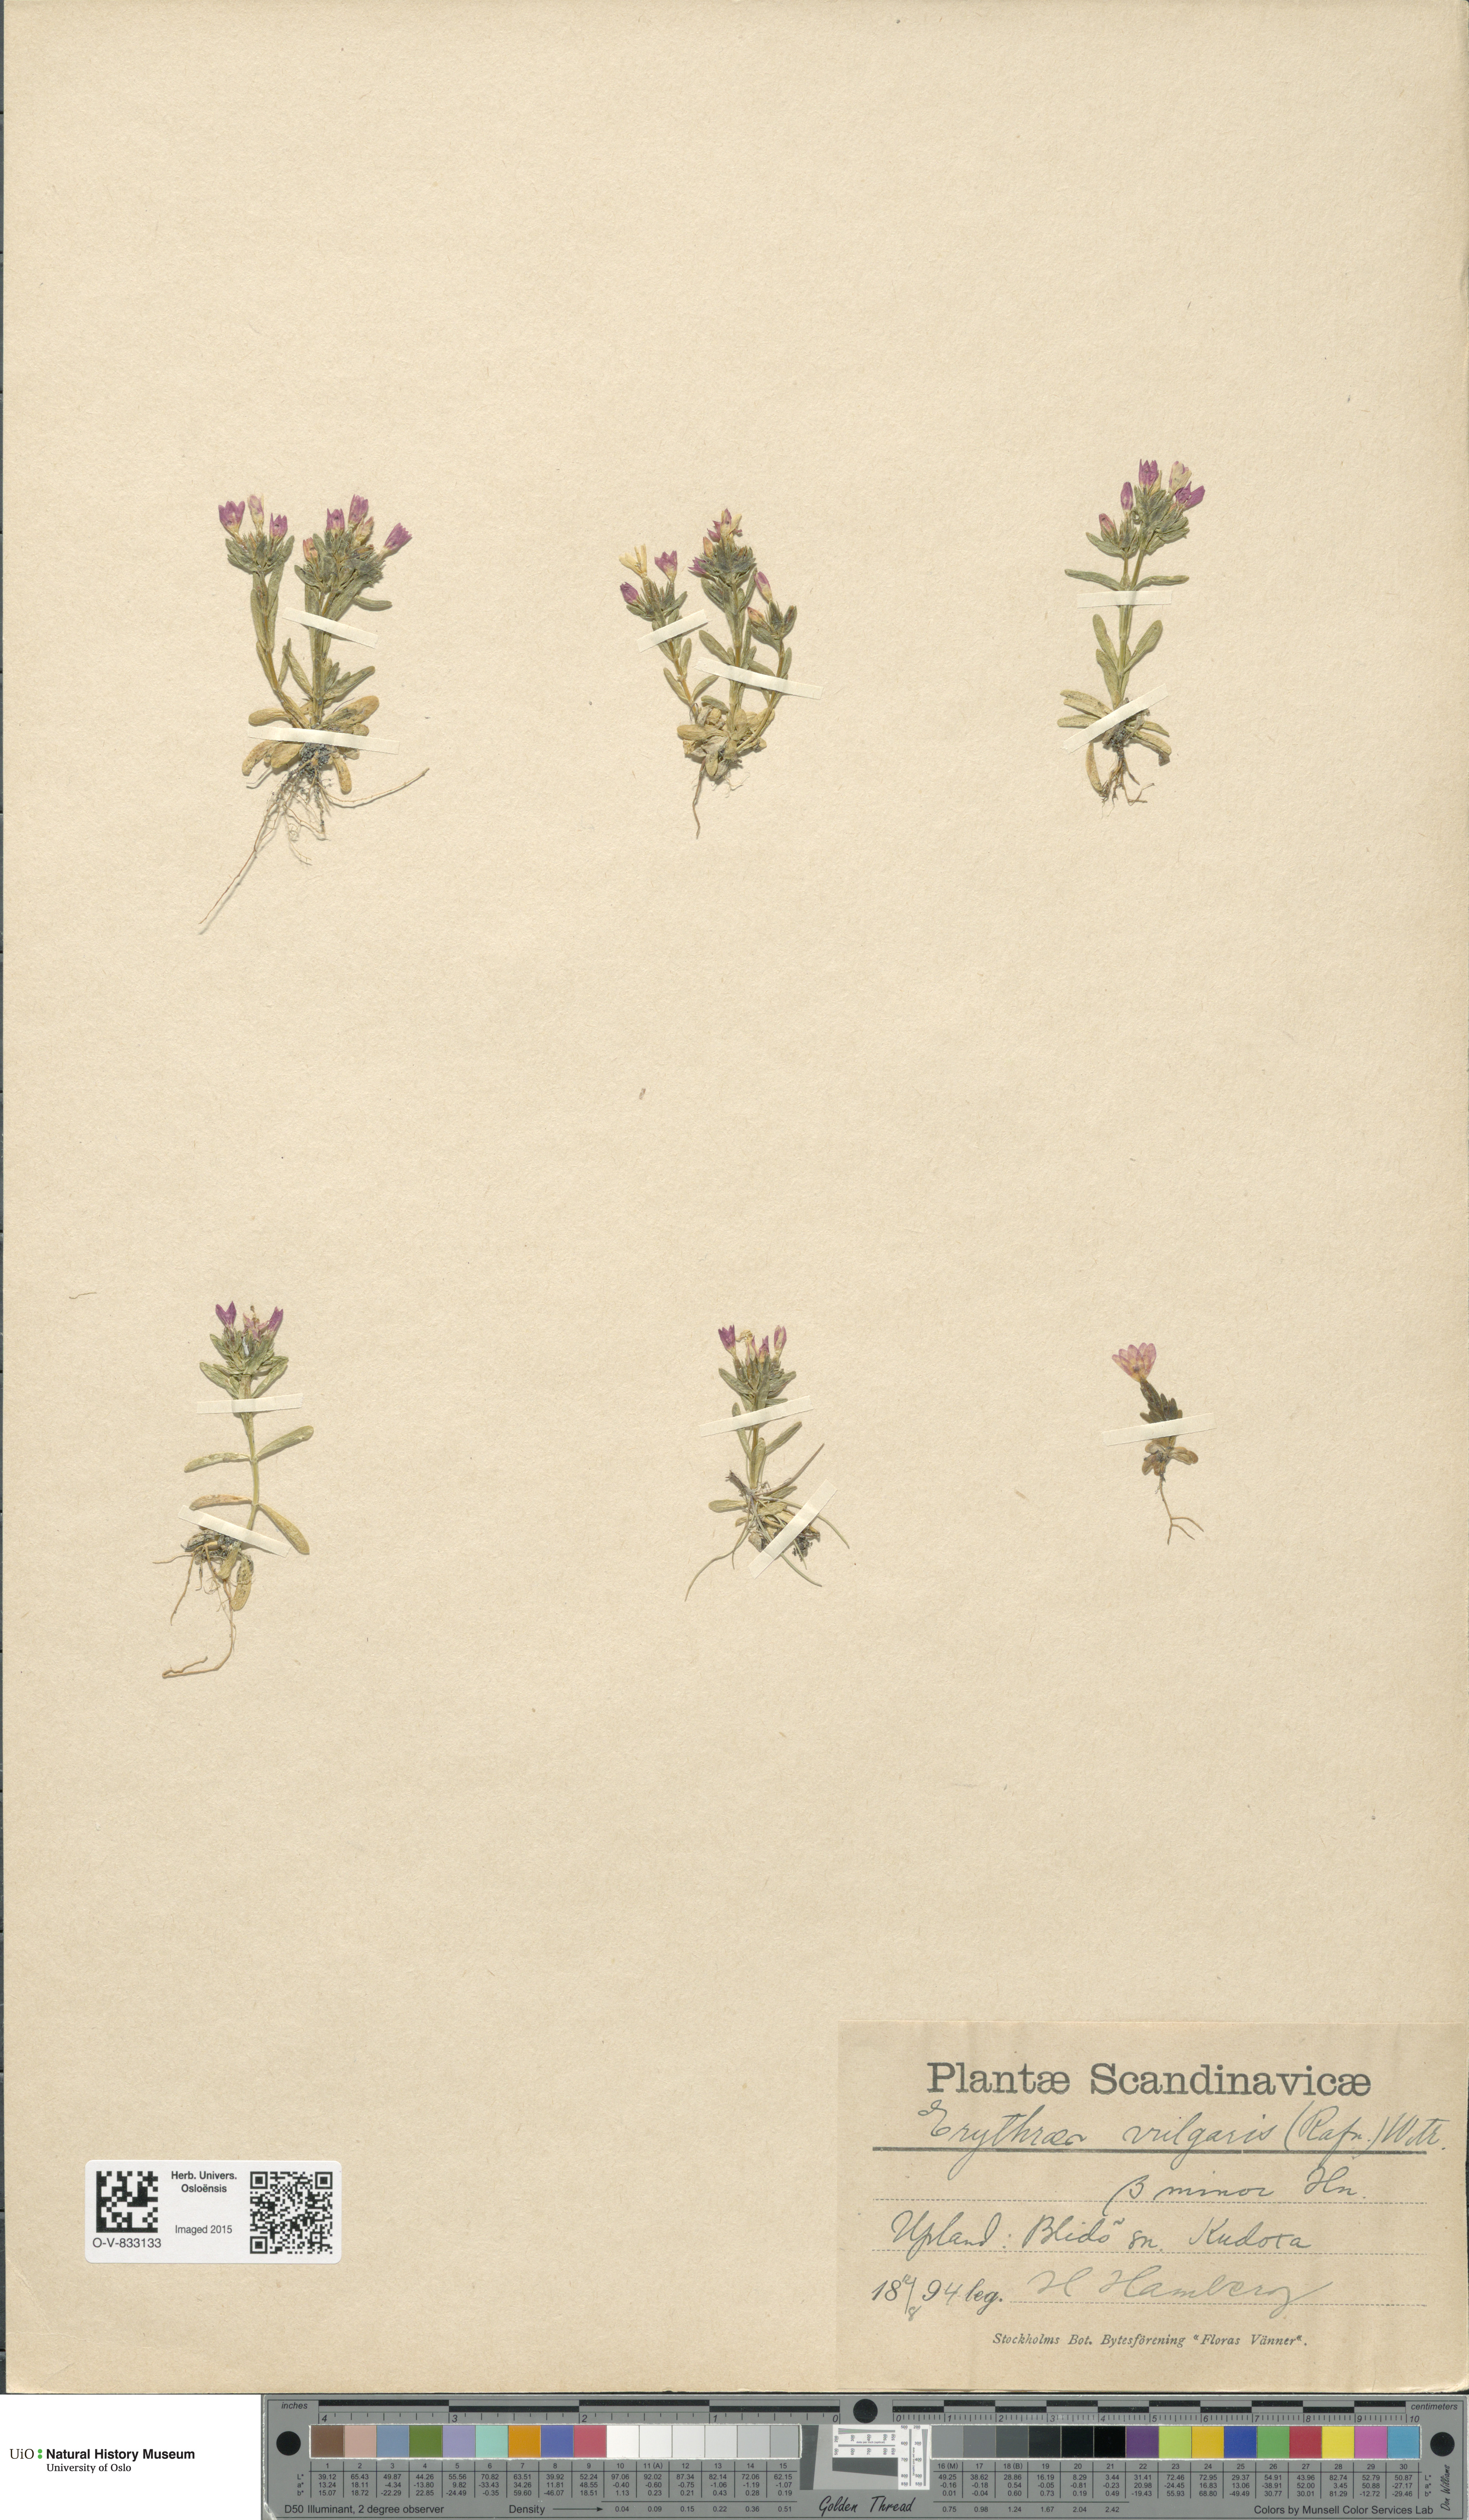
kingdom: Plantae
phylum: Tracheophyta
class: Magnoliopsida
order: Gentianales
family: Gentianaceae
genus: Centaurium
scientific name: Centaurium littorale
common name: Seaside centaury
